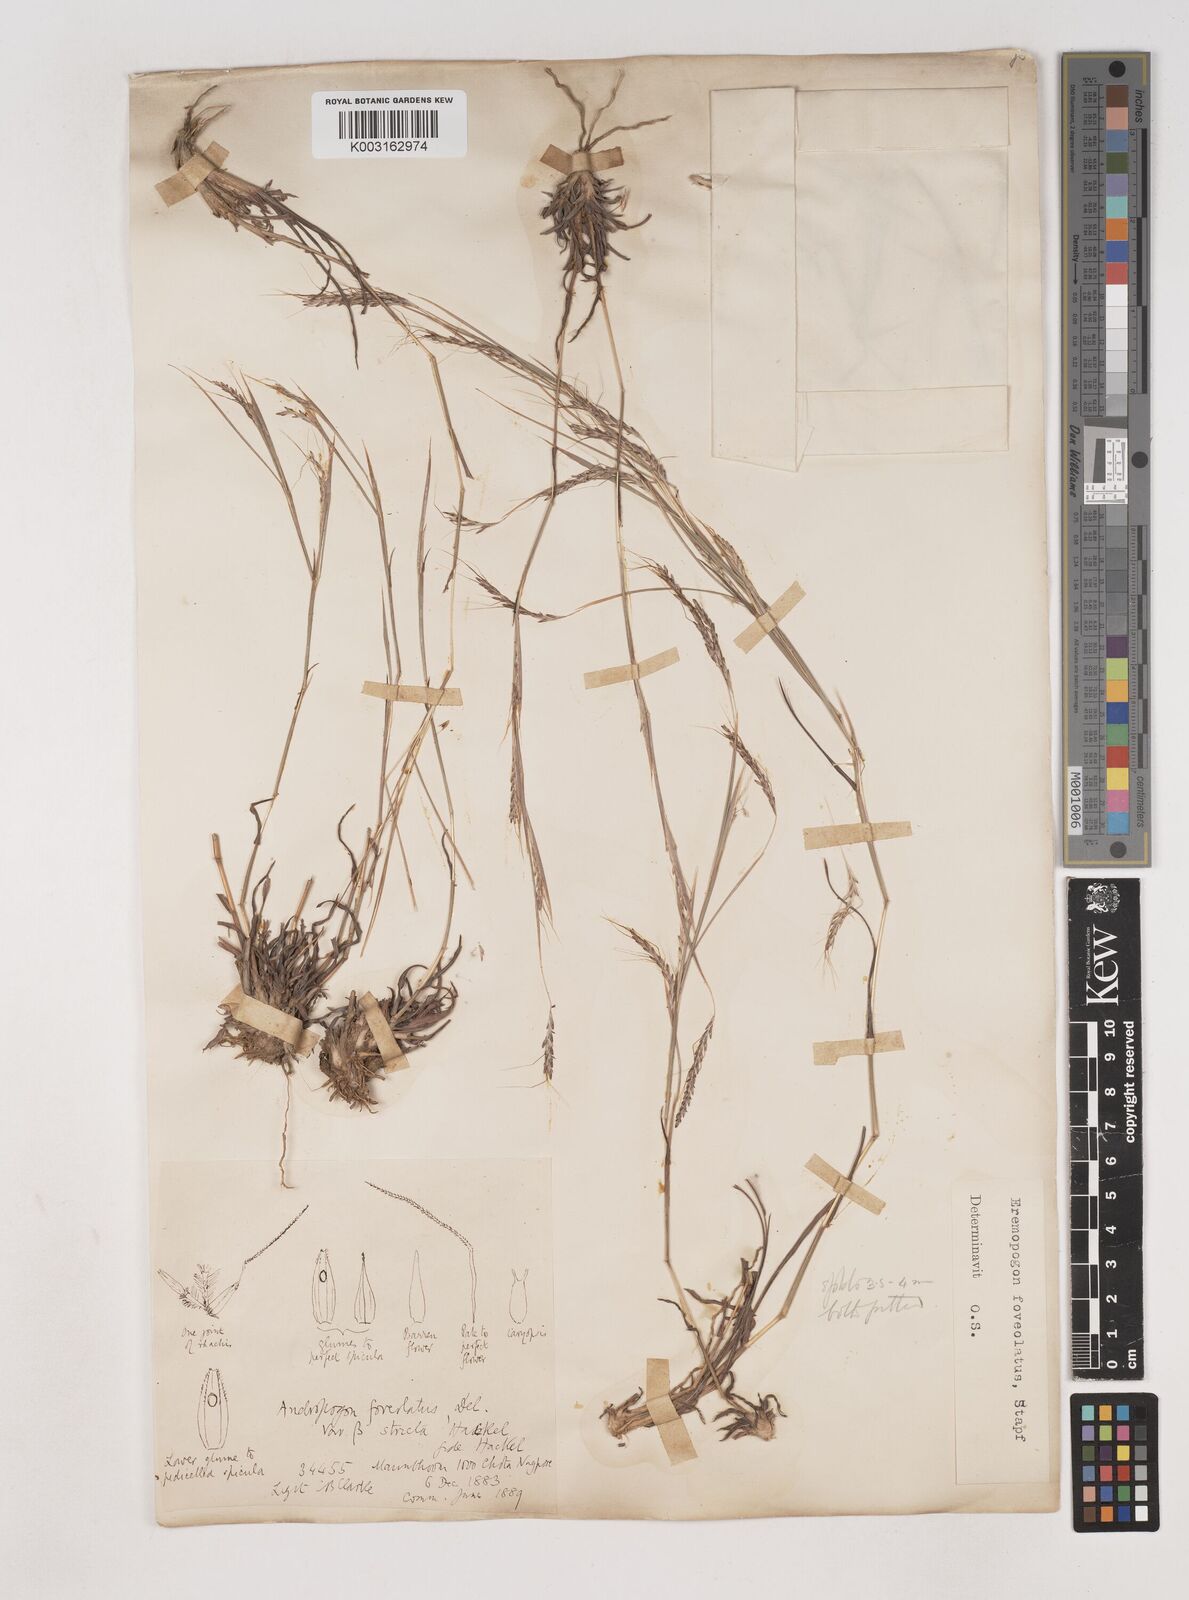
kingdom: Plantae
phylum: Tracheophyta
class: Liliopsida
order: Poales
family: Poaceae
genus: Dichanthium
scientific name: Dichanthium foveolatum
